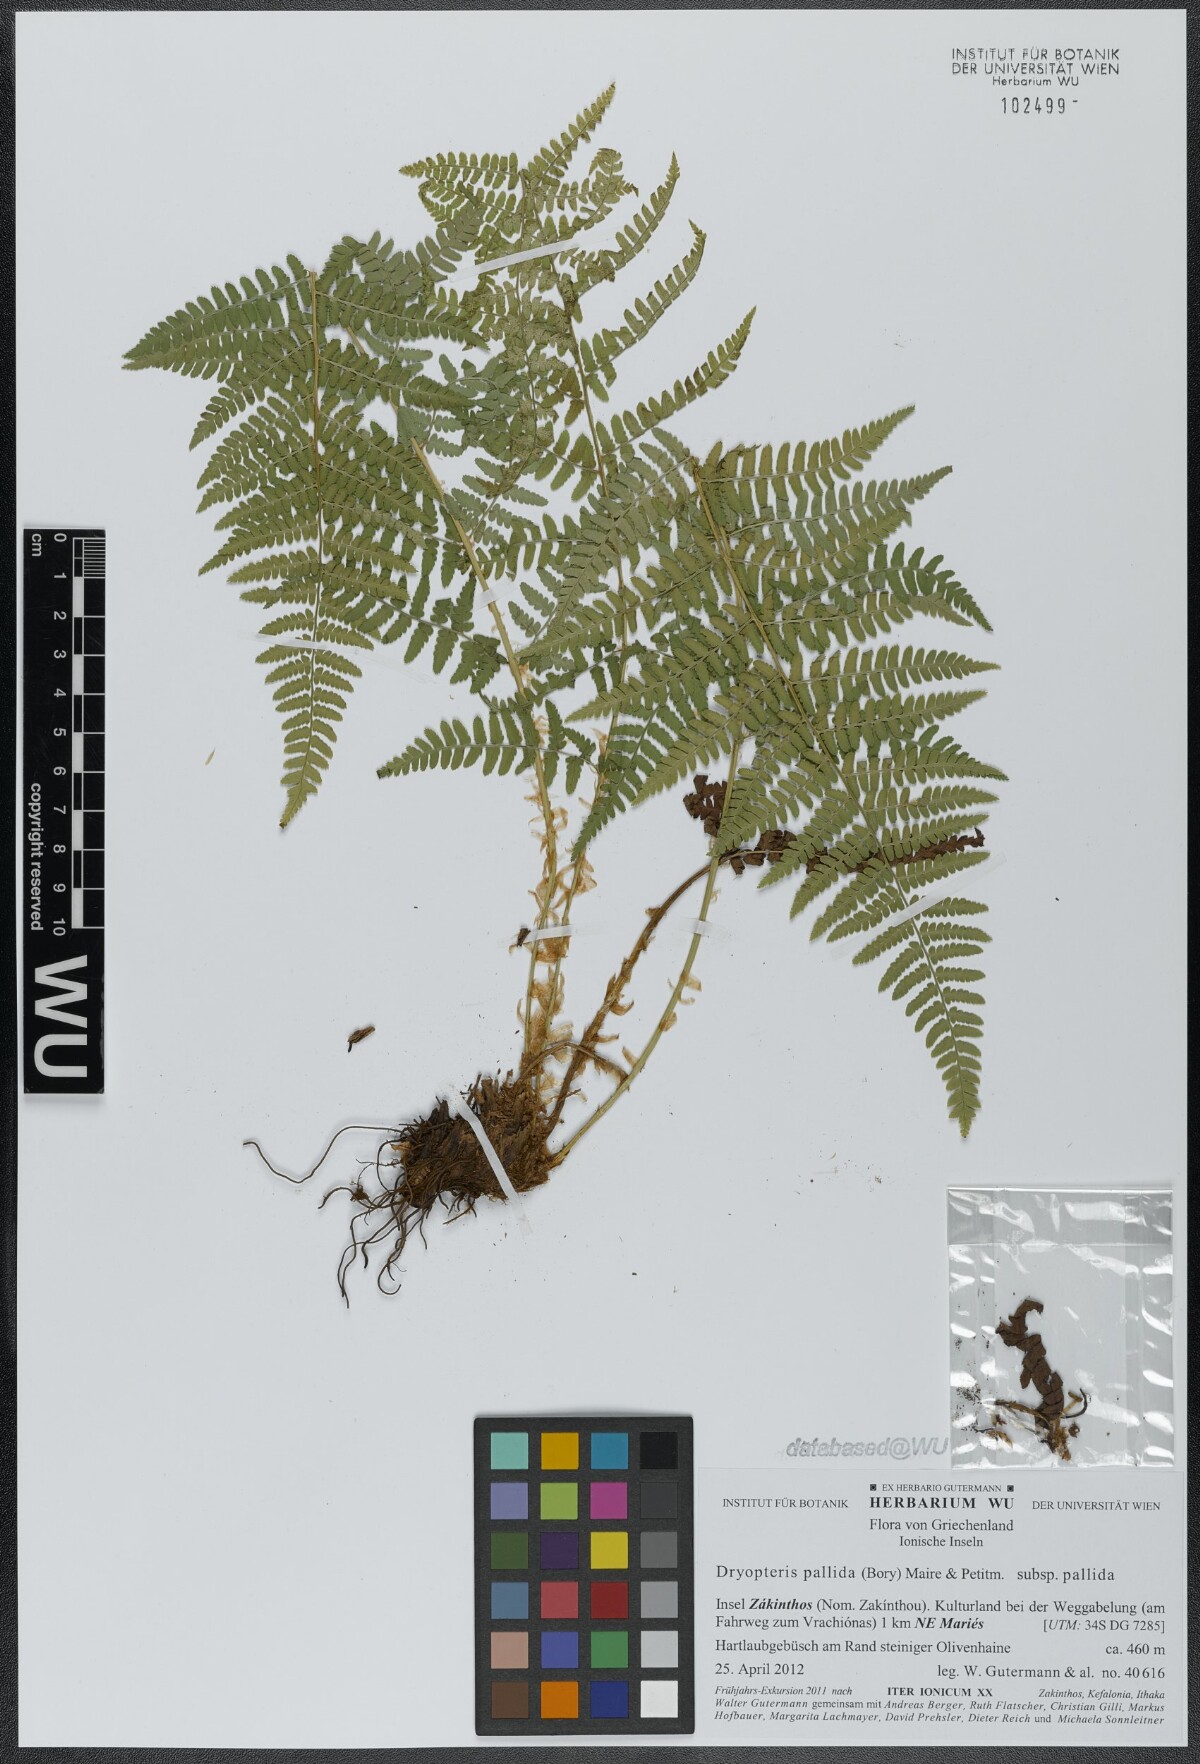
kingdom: Plantae
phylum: Tracheophyta
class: Polypodiopsida
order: Polypodiales
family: Dryopteridaceae
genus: Dryopteris
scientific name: Dryopteris pallida
